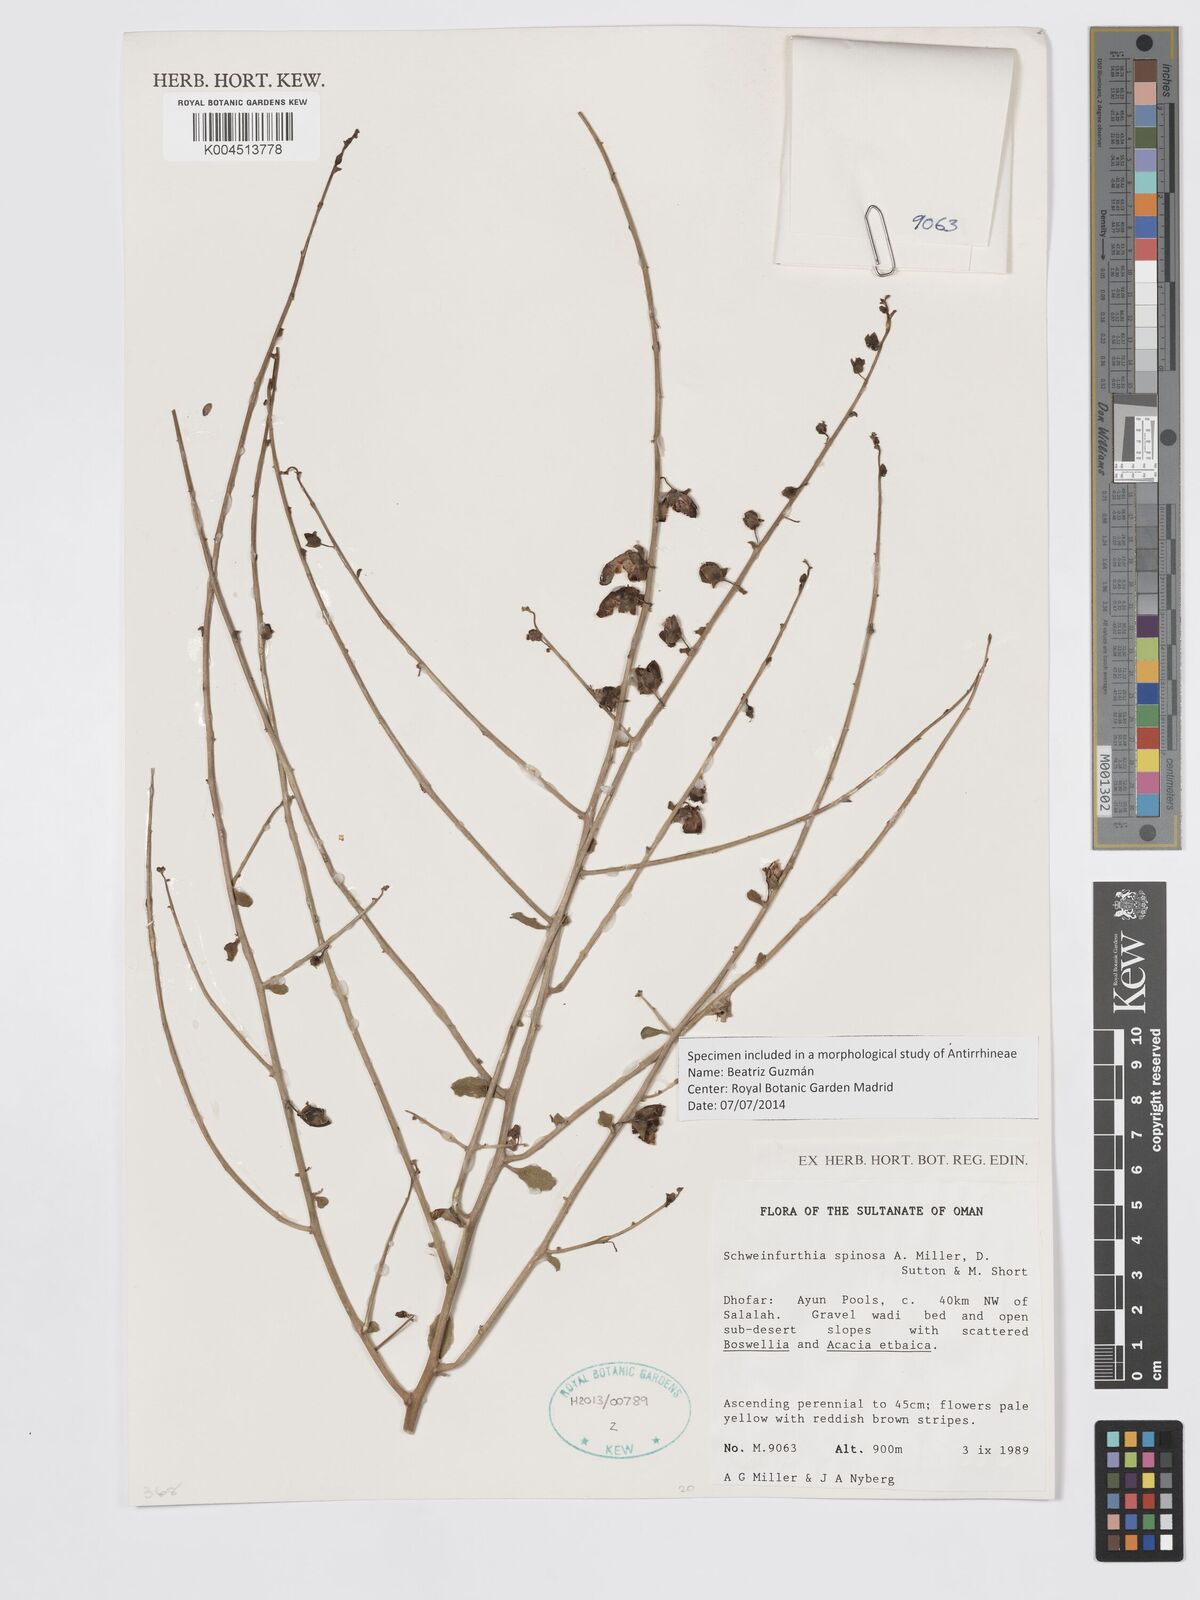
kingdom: Plantae
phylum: Tracheophyta
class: Magnoliopsida
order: Lamiales
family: Plantaginaceae
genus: Schweinfurthia
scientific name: Schweinfurthia spinosa
